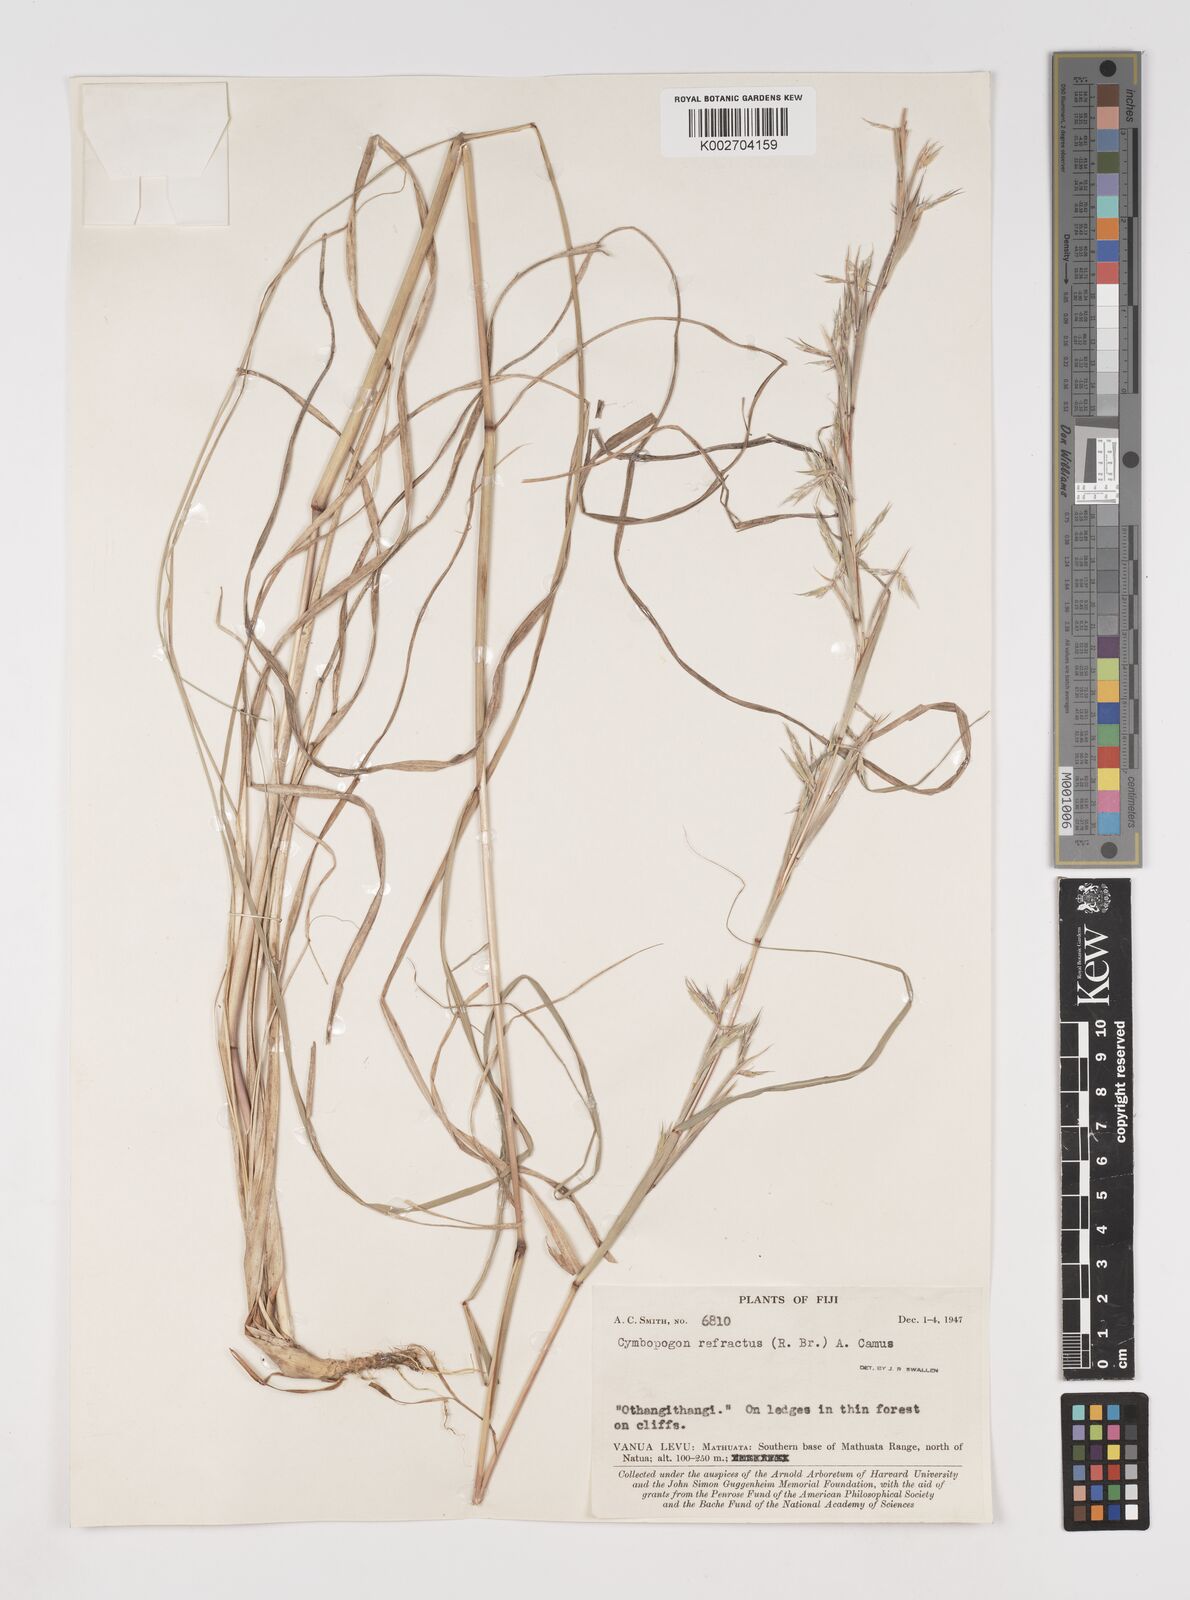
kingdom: Plantae
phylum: Tracheophyta
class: Liliopsida
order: Poales
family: Poaceae
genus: Cymbopogon
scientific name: Cymbopogon refractus
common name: Barbwire grass
